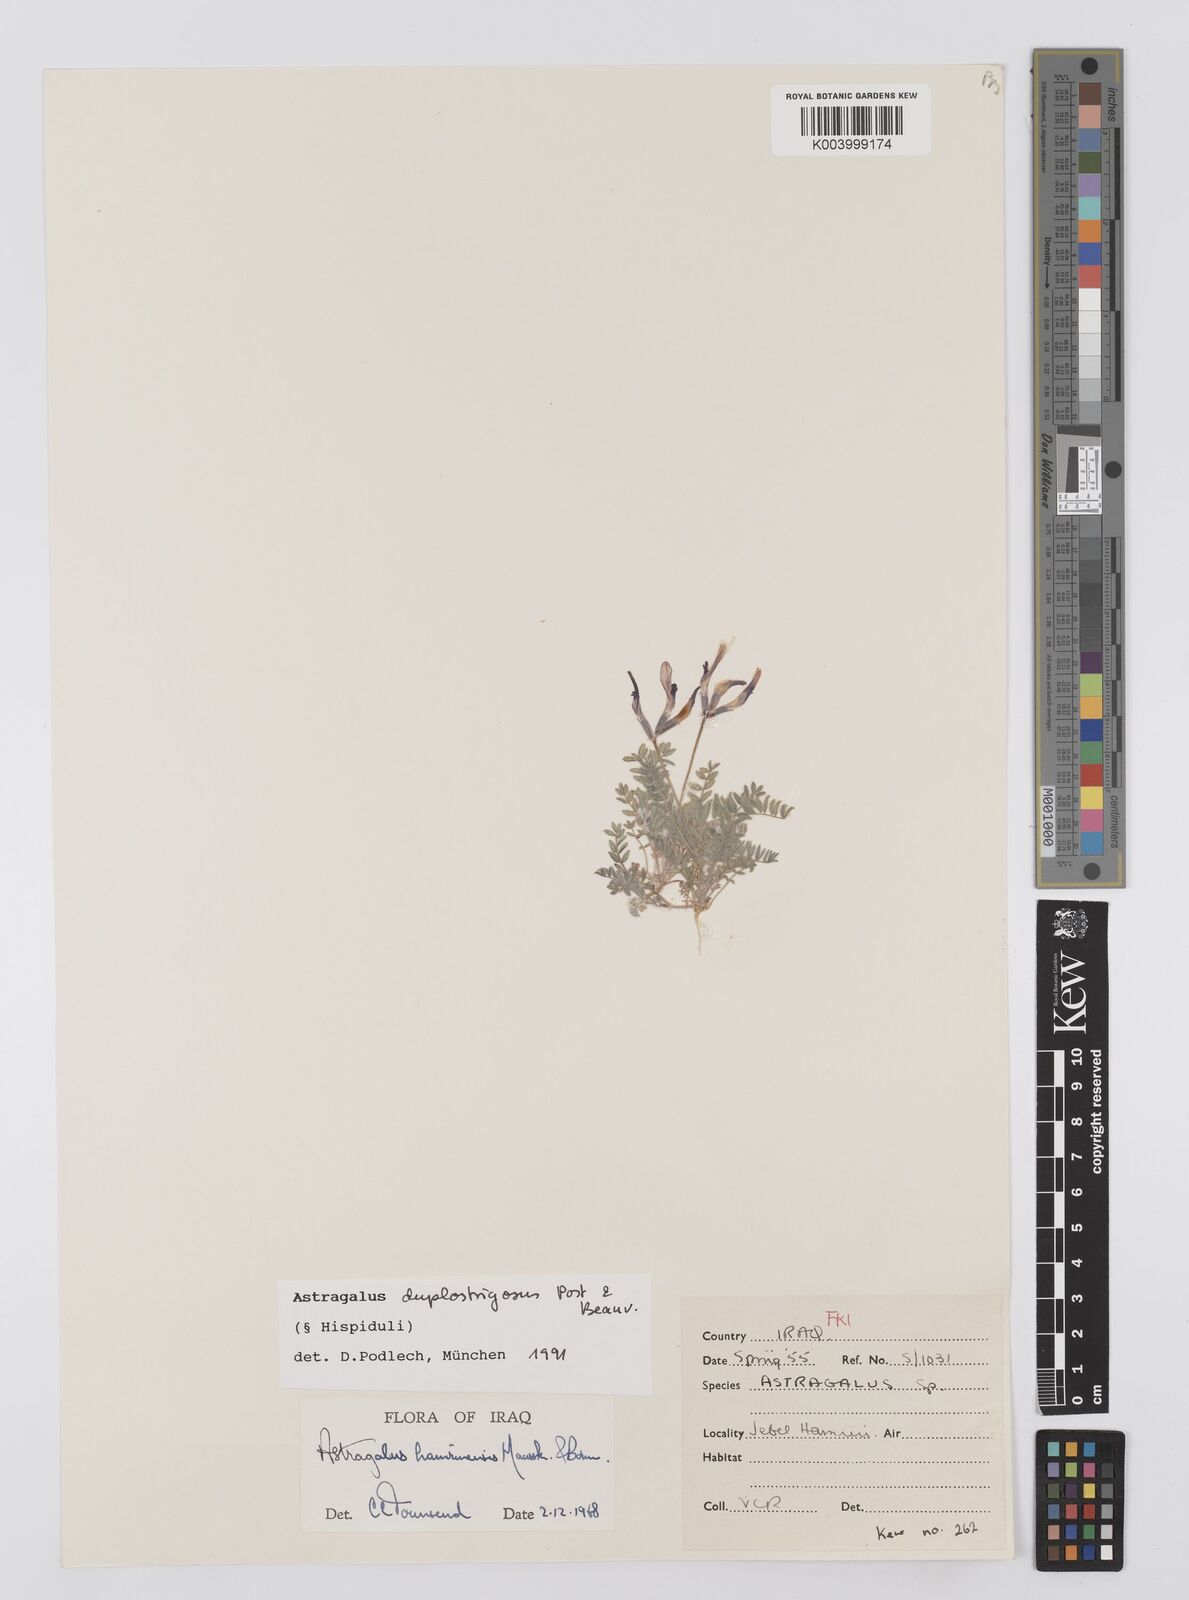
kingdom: Plantae
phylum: Tracheophyta
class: Magnoliopsida
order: Fabales
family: Fabaceae
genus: Astragalus
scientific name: Astragalus duplostrigosus
